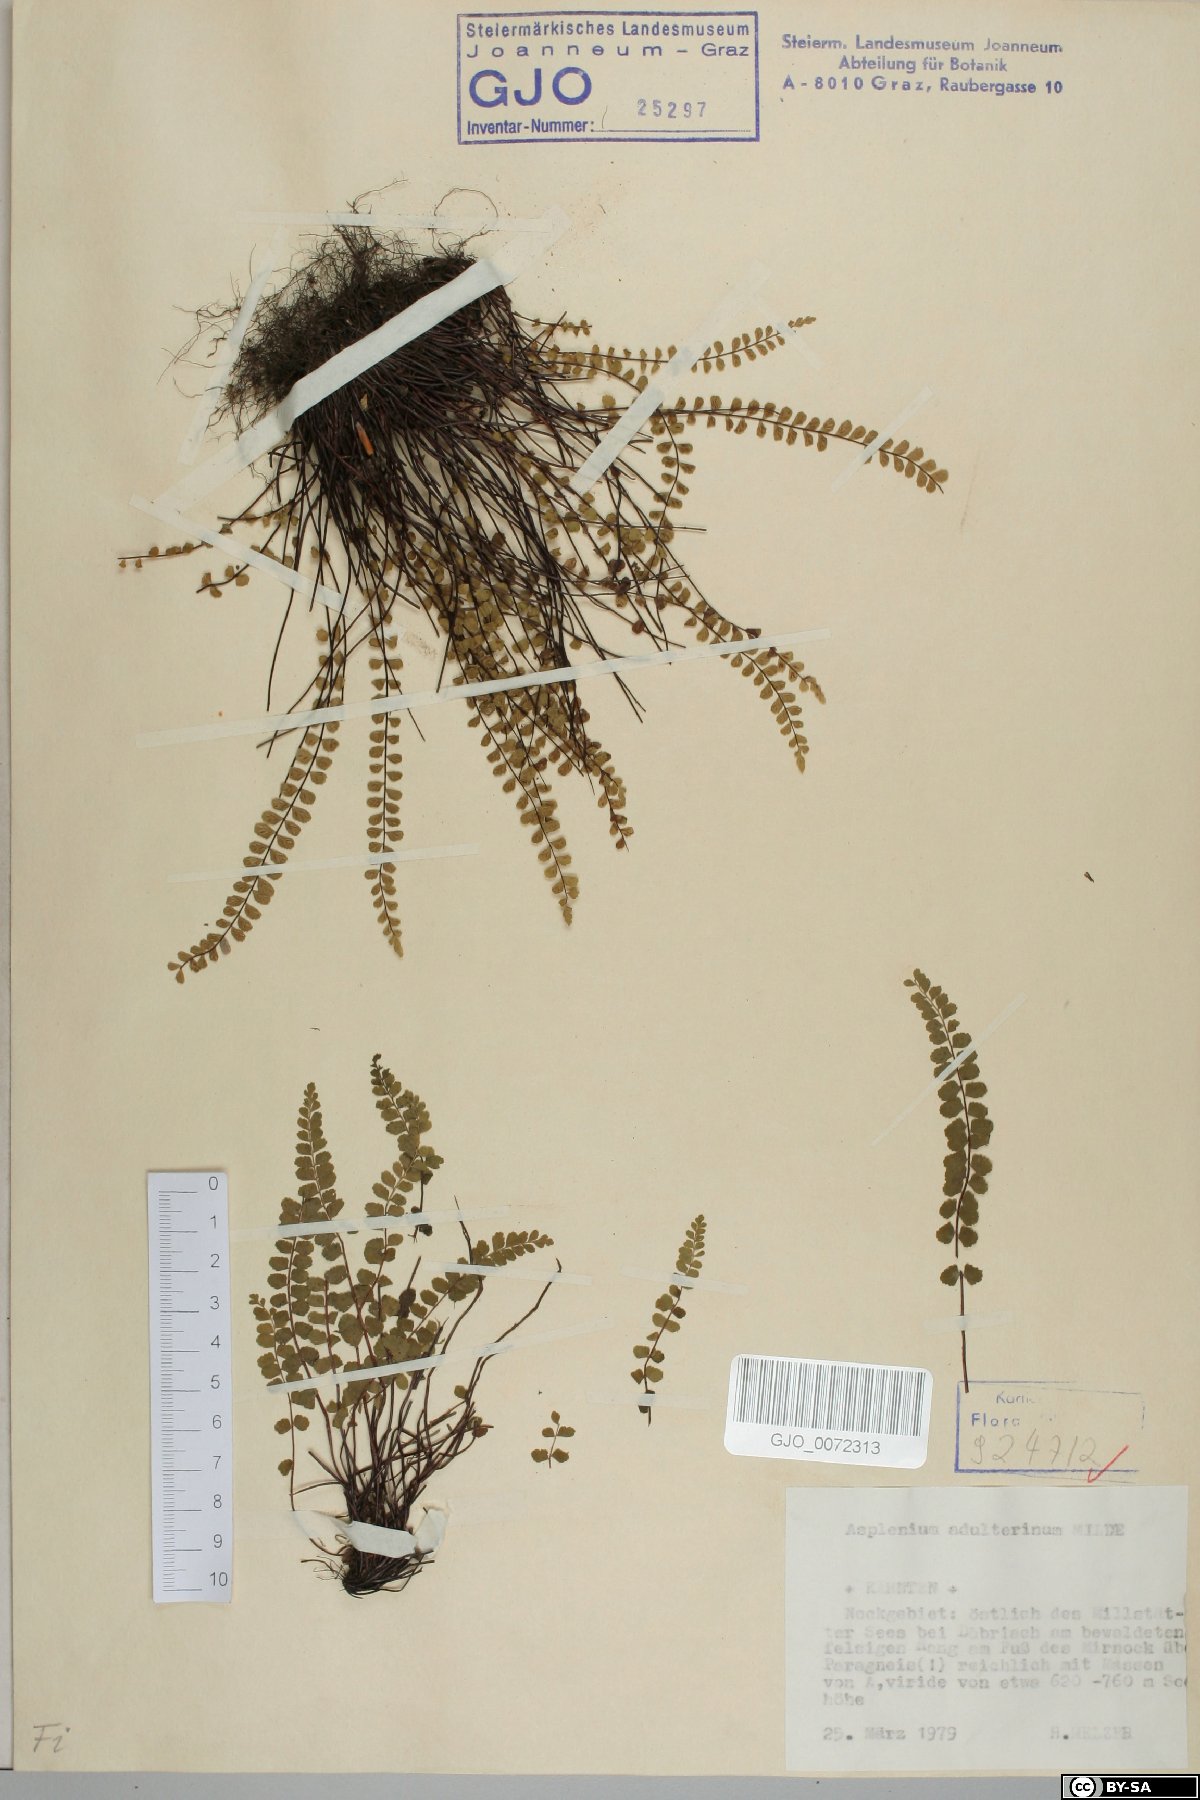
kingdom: Plantae
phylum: Tracheophyta
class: Polypodiopsida
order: Polypodiales
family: Aspleniaceae
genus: Asplenium
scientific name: Asplenium adulterinum
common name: Adulterated spleenwort
